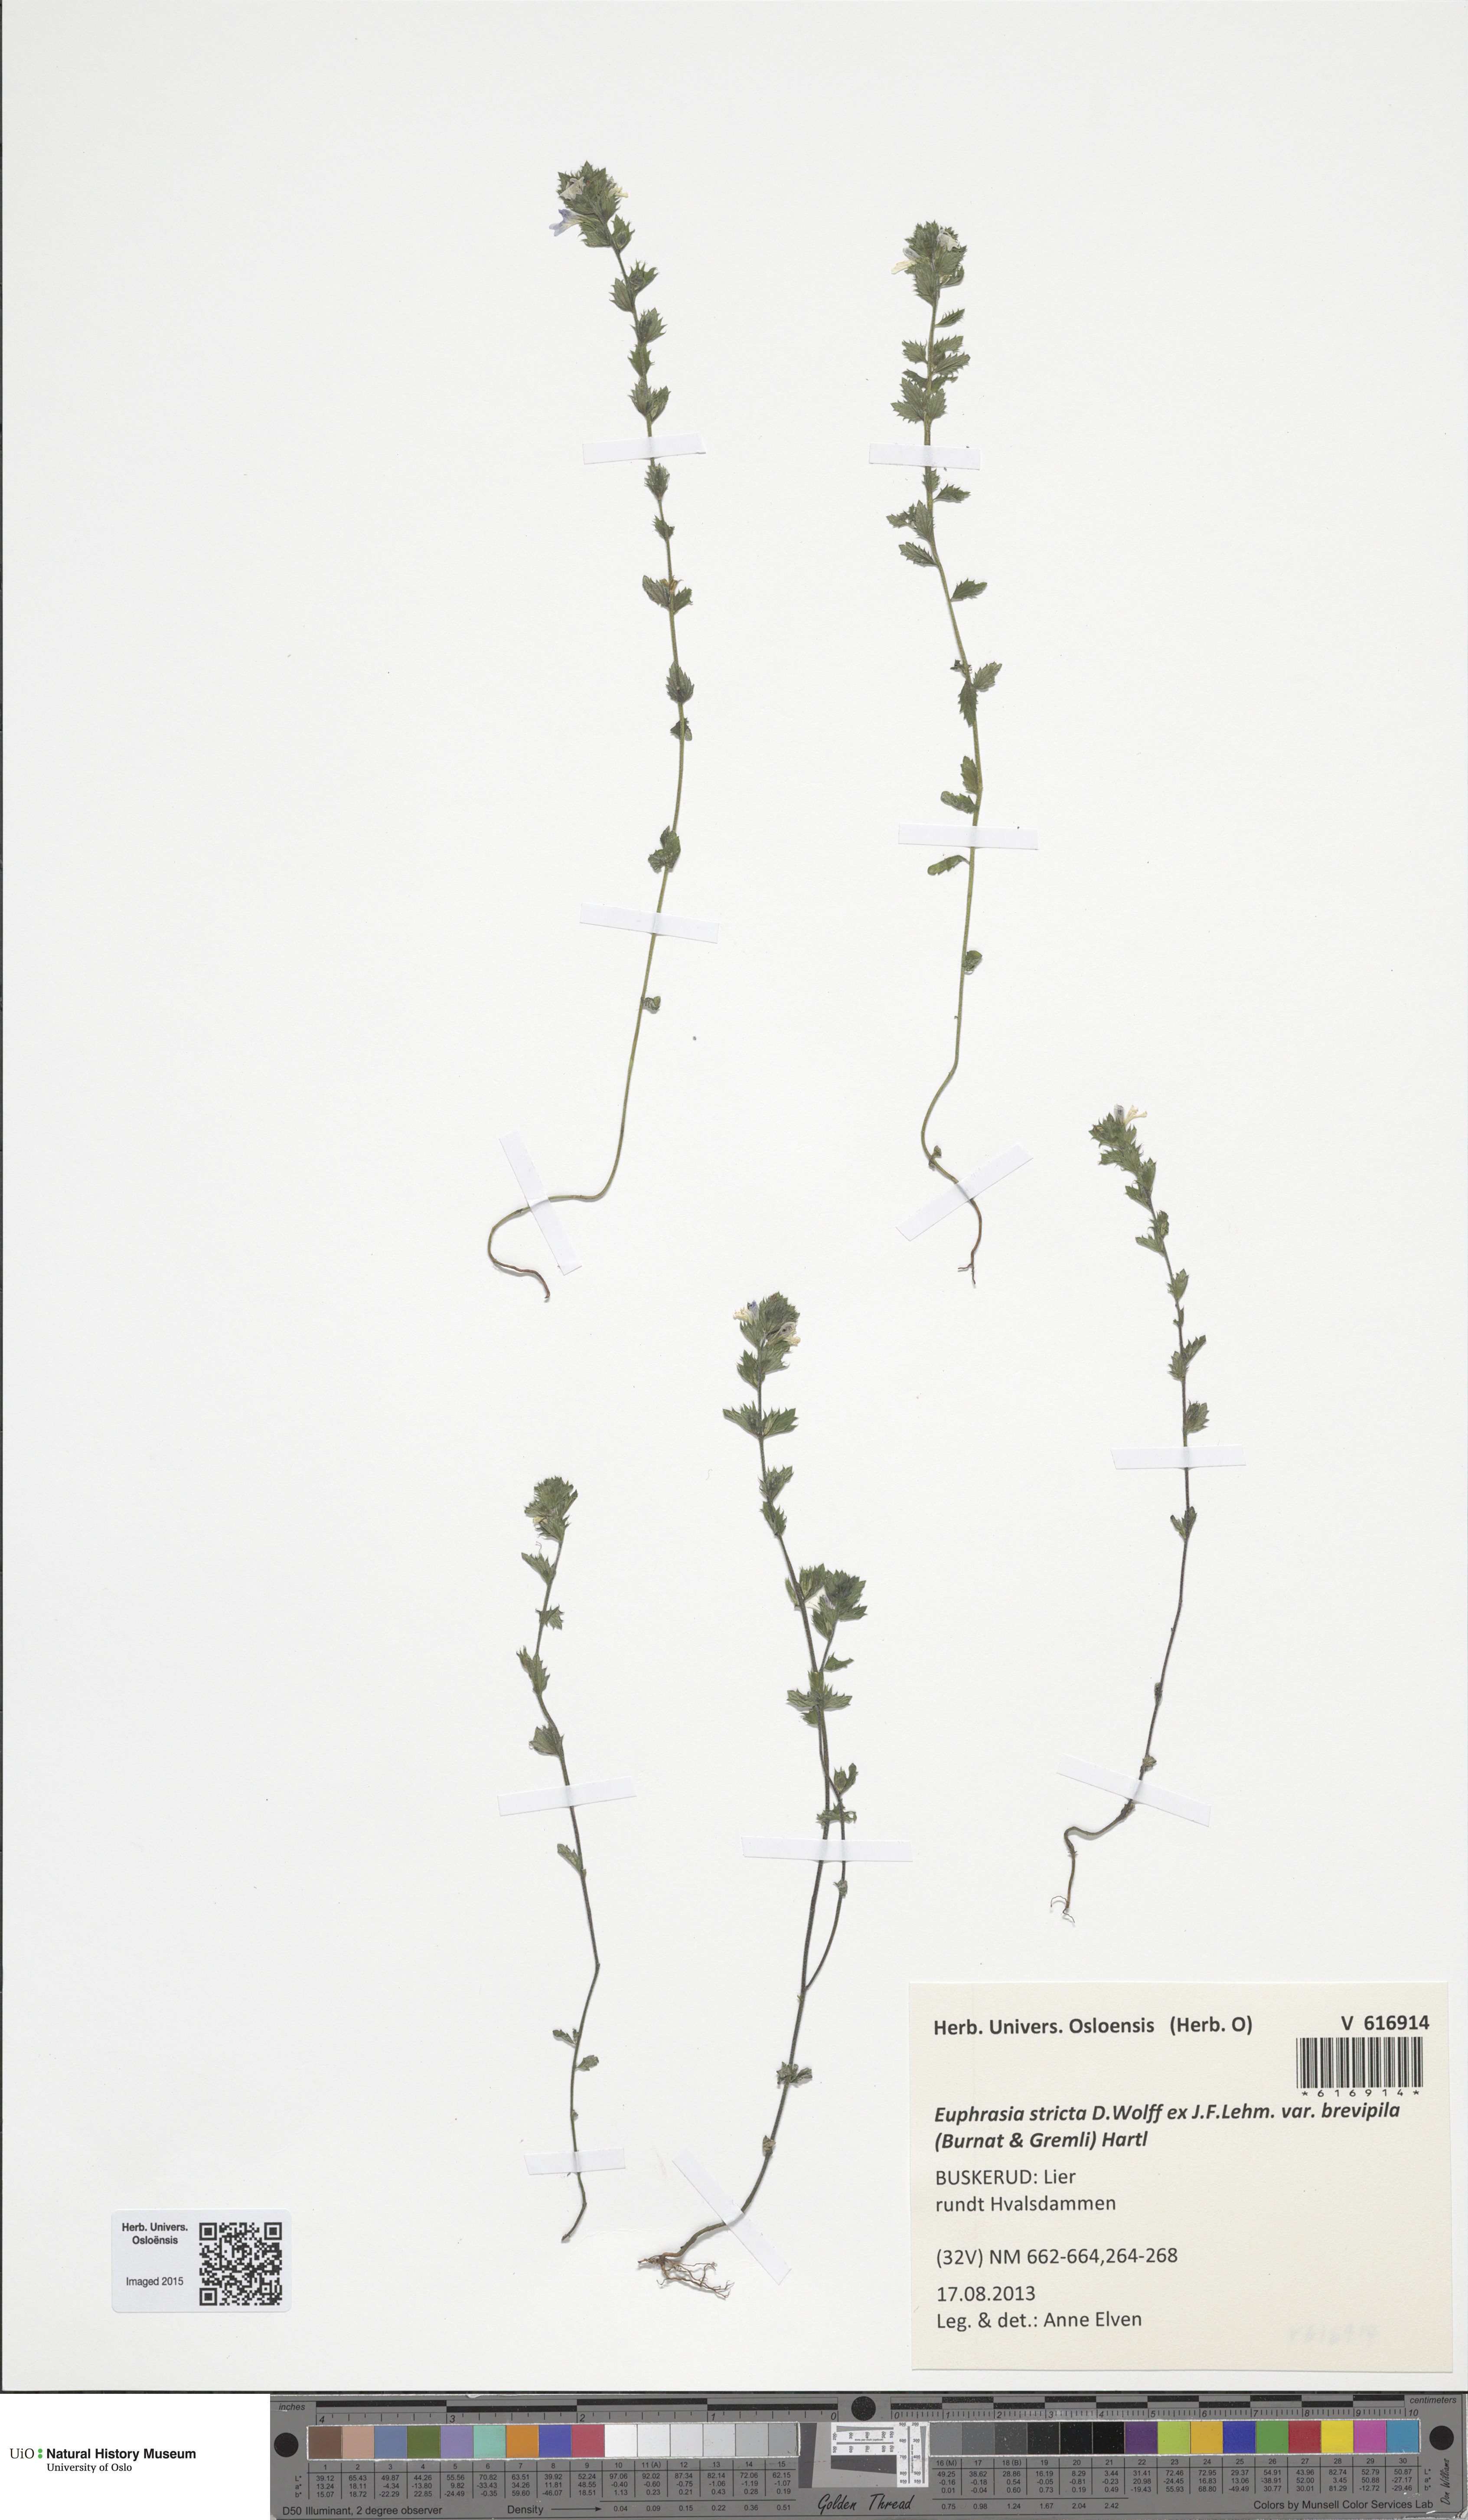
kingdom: Plantae
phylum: Tracheophyta
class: Magnoliopsida
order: Lamiales
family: Orobanchaceae
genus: Euphrasia
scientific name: Euphrasia vernalis
